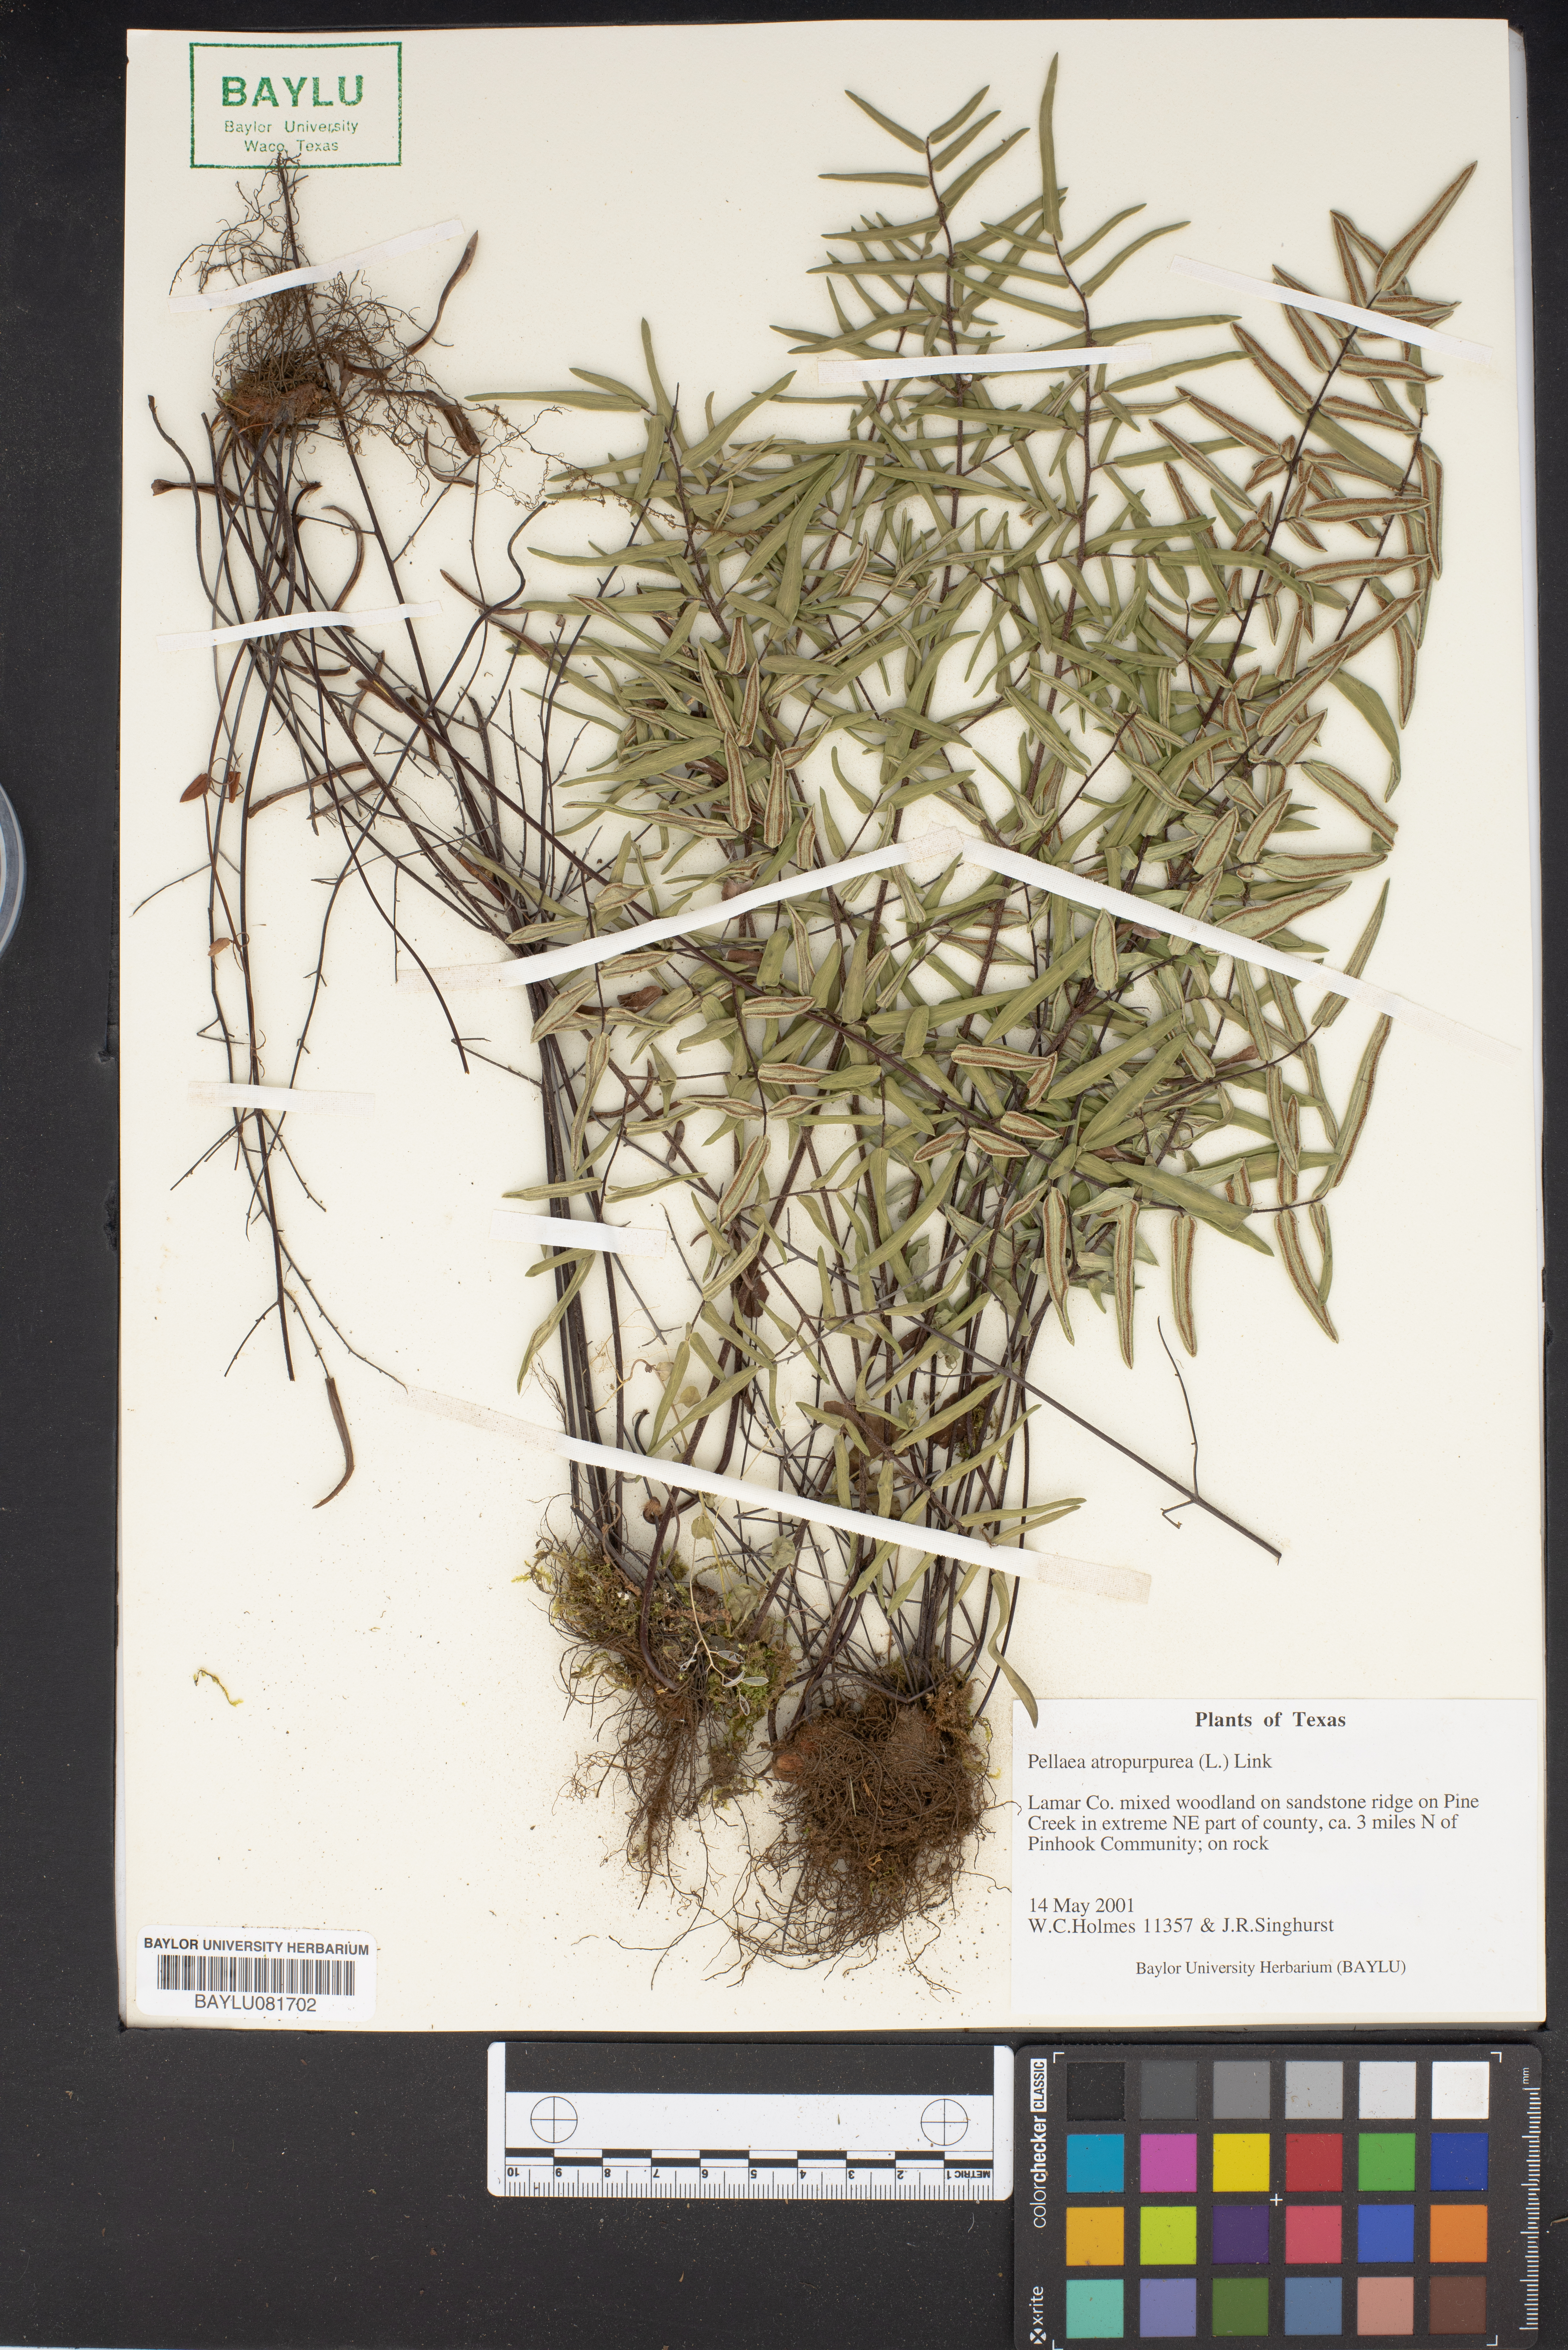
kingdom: Plantae
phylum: Tracheophyta
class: Polypodiopsida
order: Polypodiales
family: Pteridaceae
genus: Pellaea
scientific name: Pellaea atropurpurea
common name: Hairy cliffbrake
